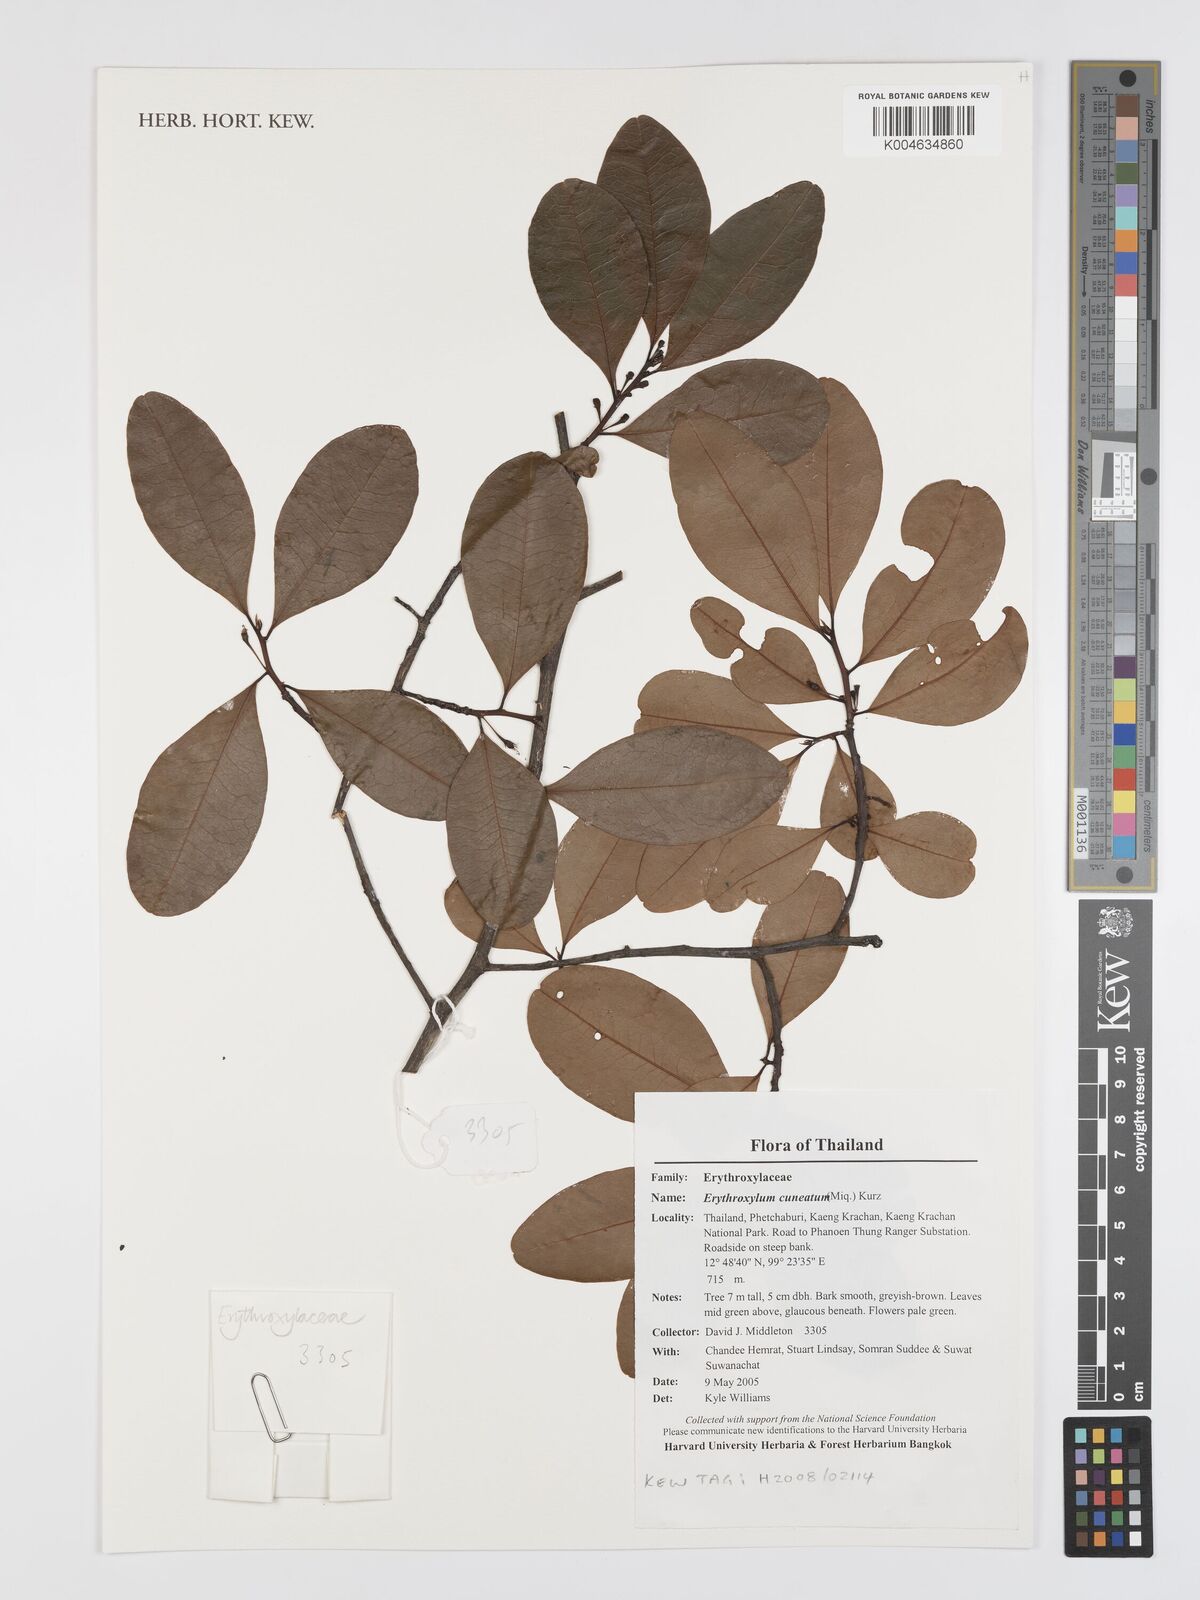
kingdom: Plantae
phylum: Tracheophyta
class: Magnoliopsida
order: Malpighiales
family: Erythroxylaceae
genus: Erythroxylum
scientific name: Erythroxylum cuneatum
